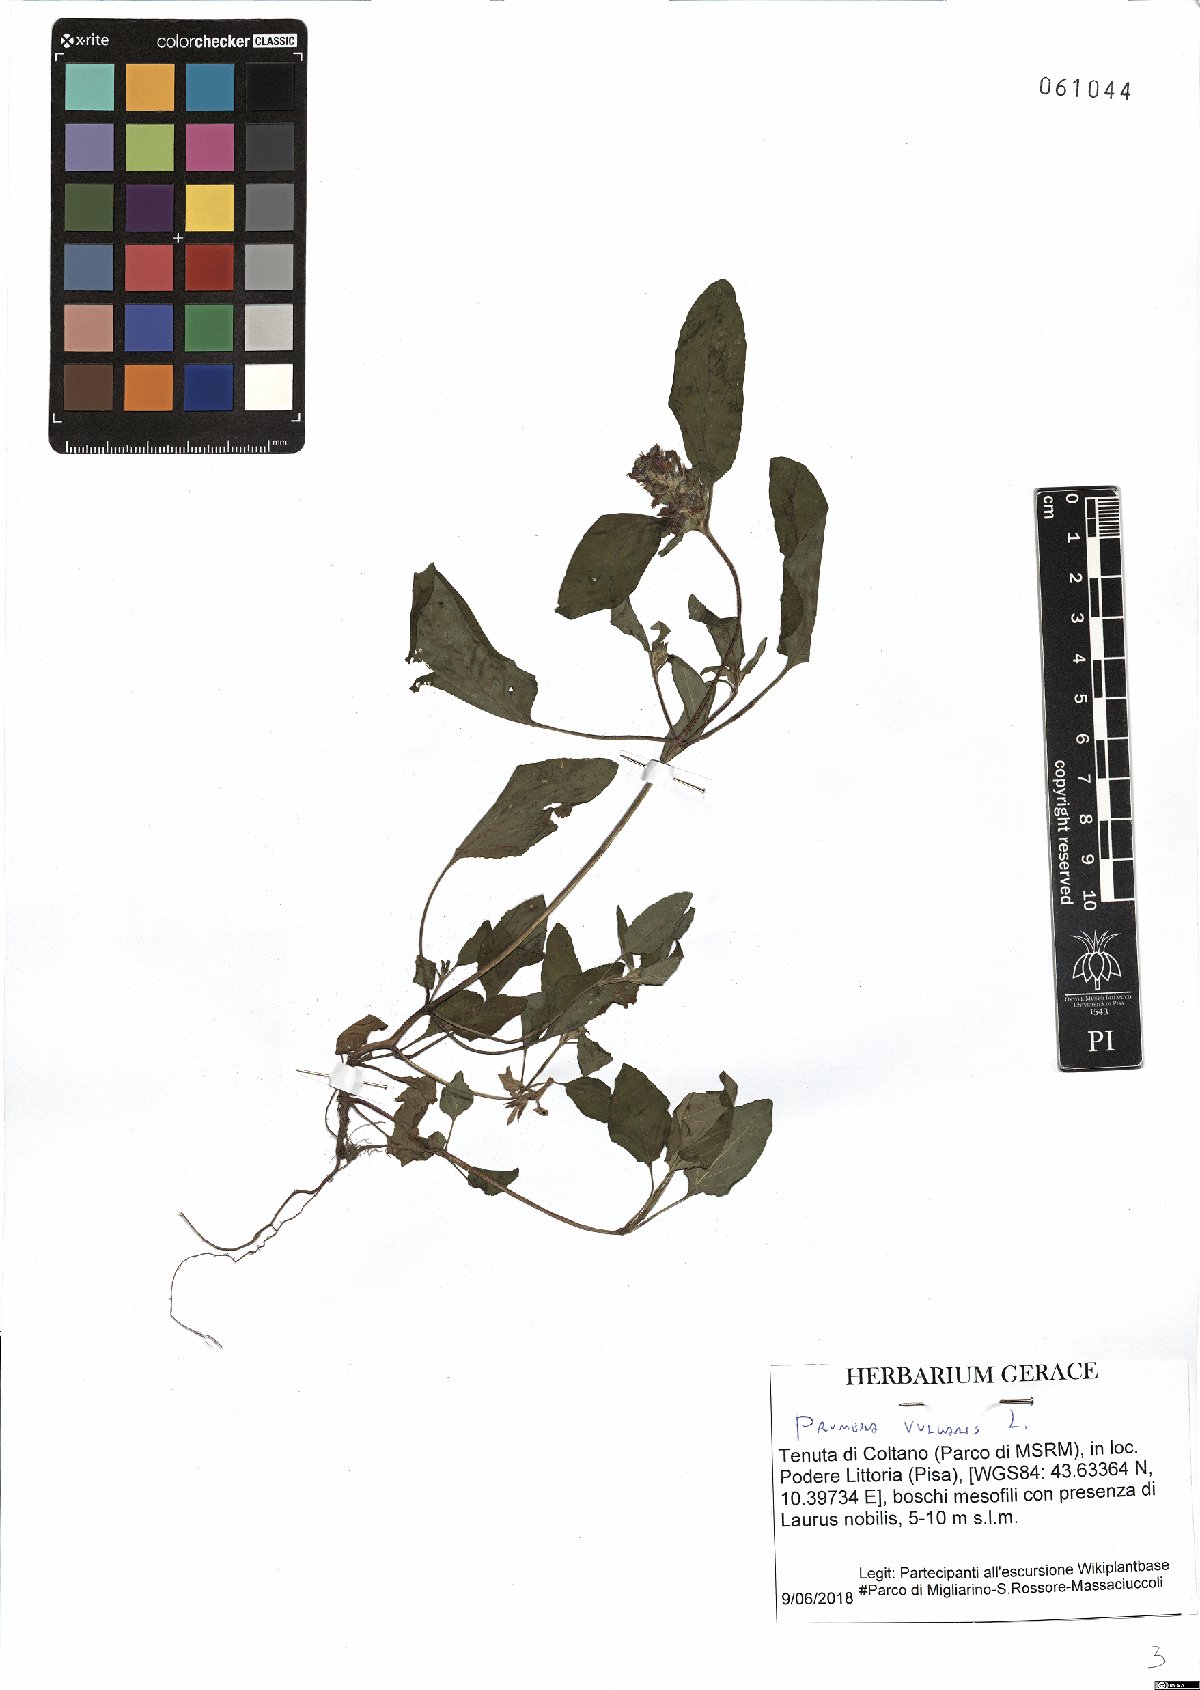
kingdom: Plantae
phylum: Tracheophyta
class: Magnoliopsida
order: Lamiales
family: Lamiaceae
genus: Prunella
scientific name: Prunella vulgaris
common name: Heal-all
